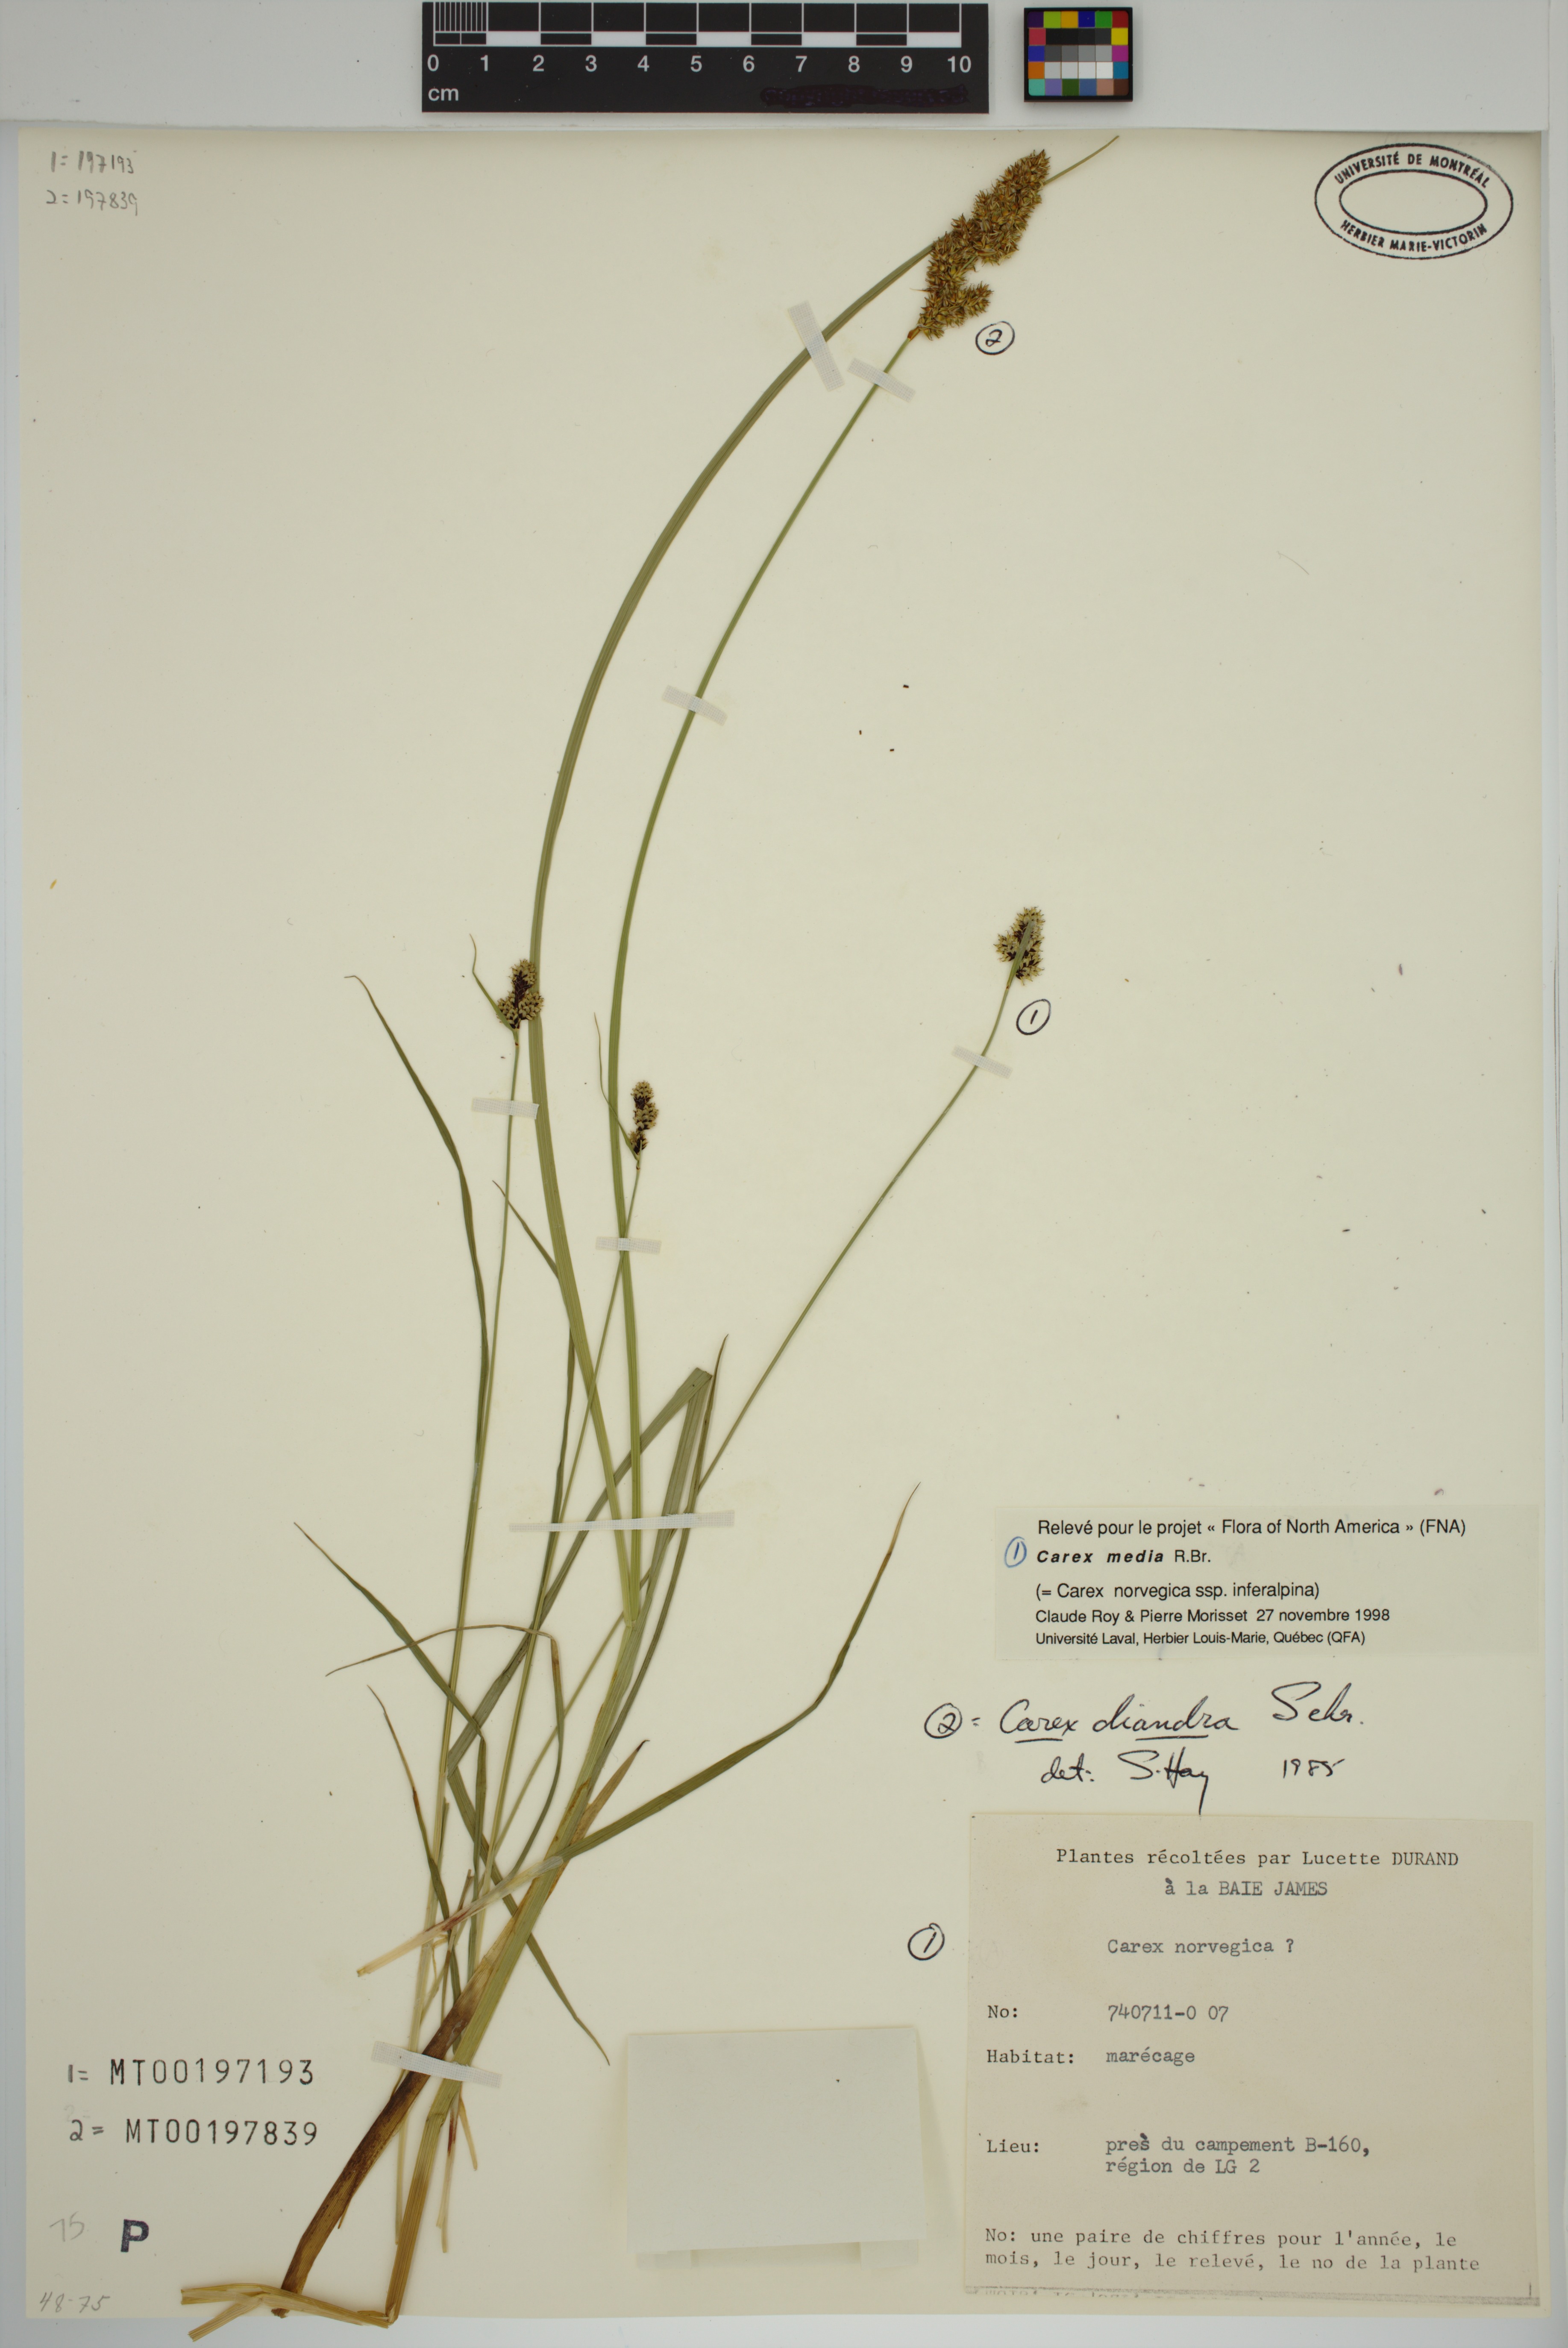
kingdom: Plantae
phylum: Tracheophyta
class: Liliopsida
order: Poales
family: Cyperaceae
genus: Carex
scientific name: Carex diandra
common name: Lesser tussock-sedge
